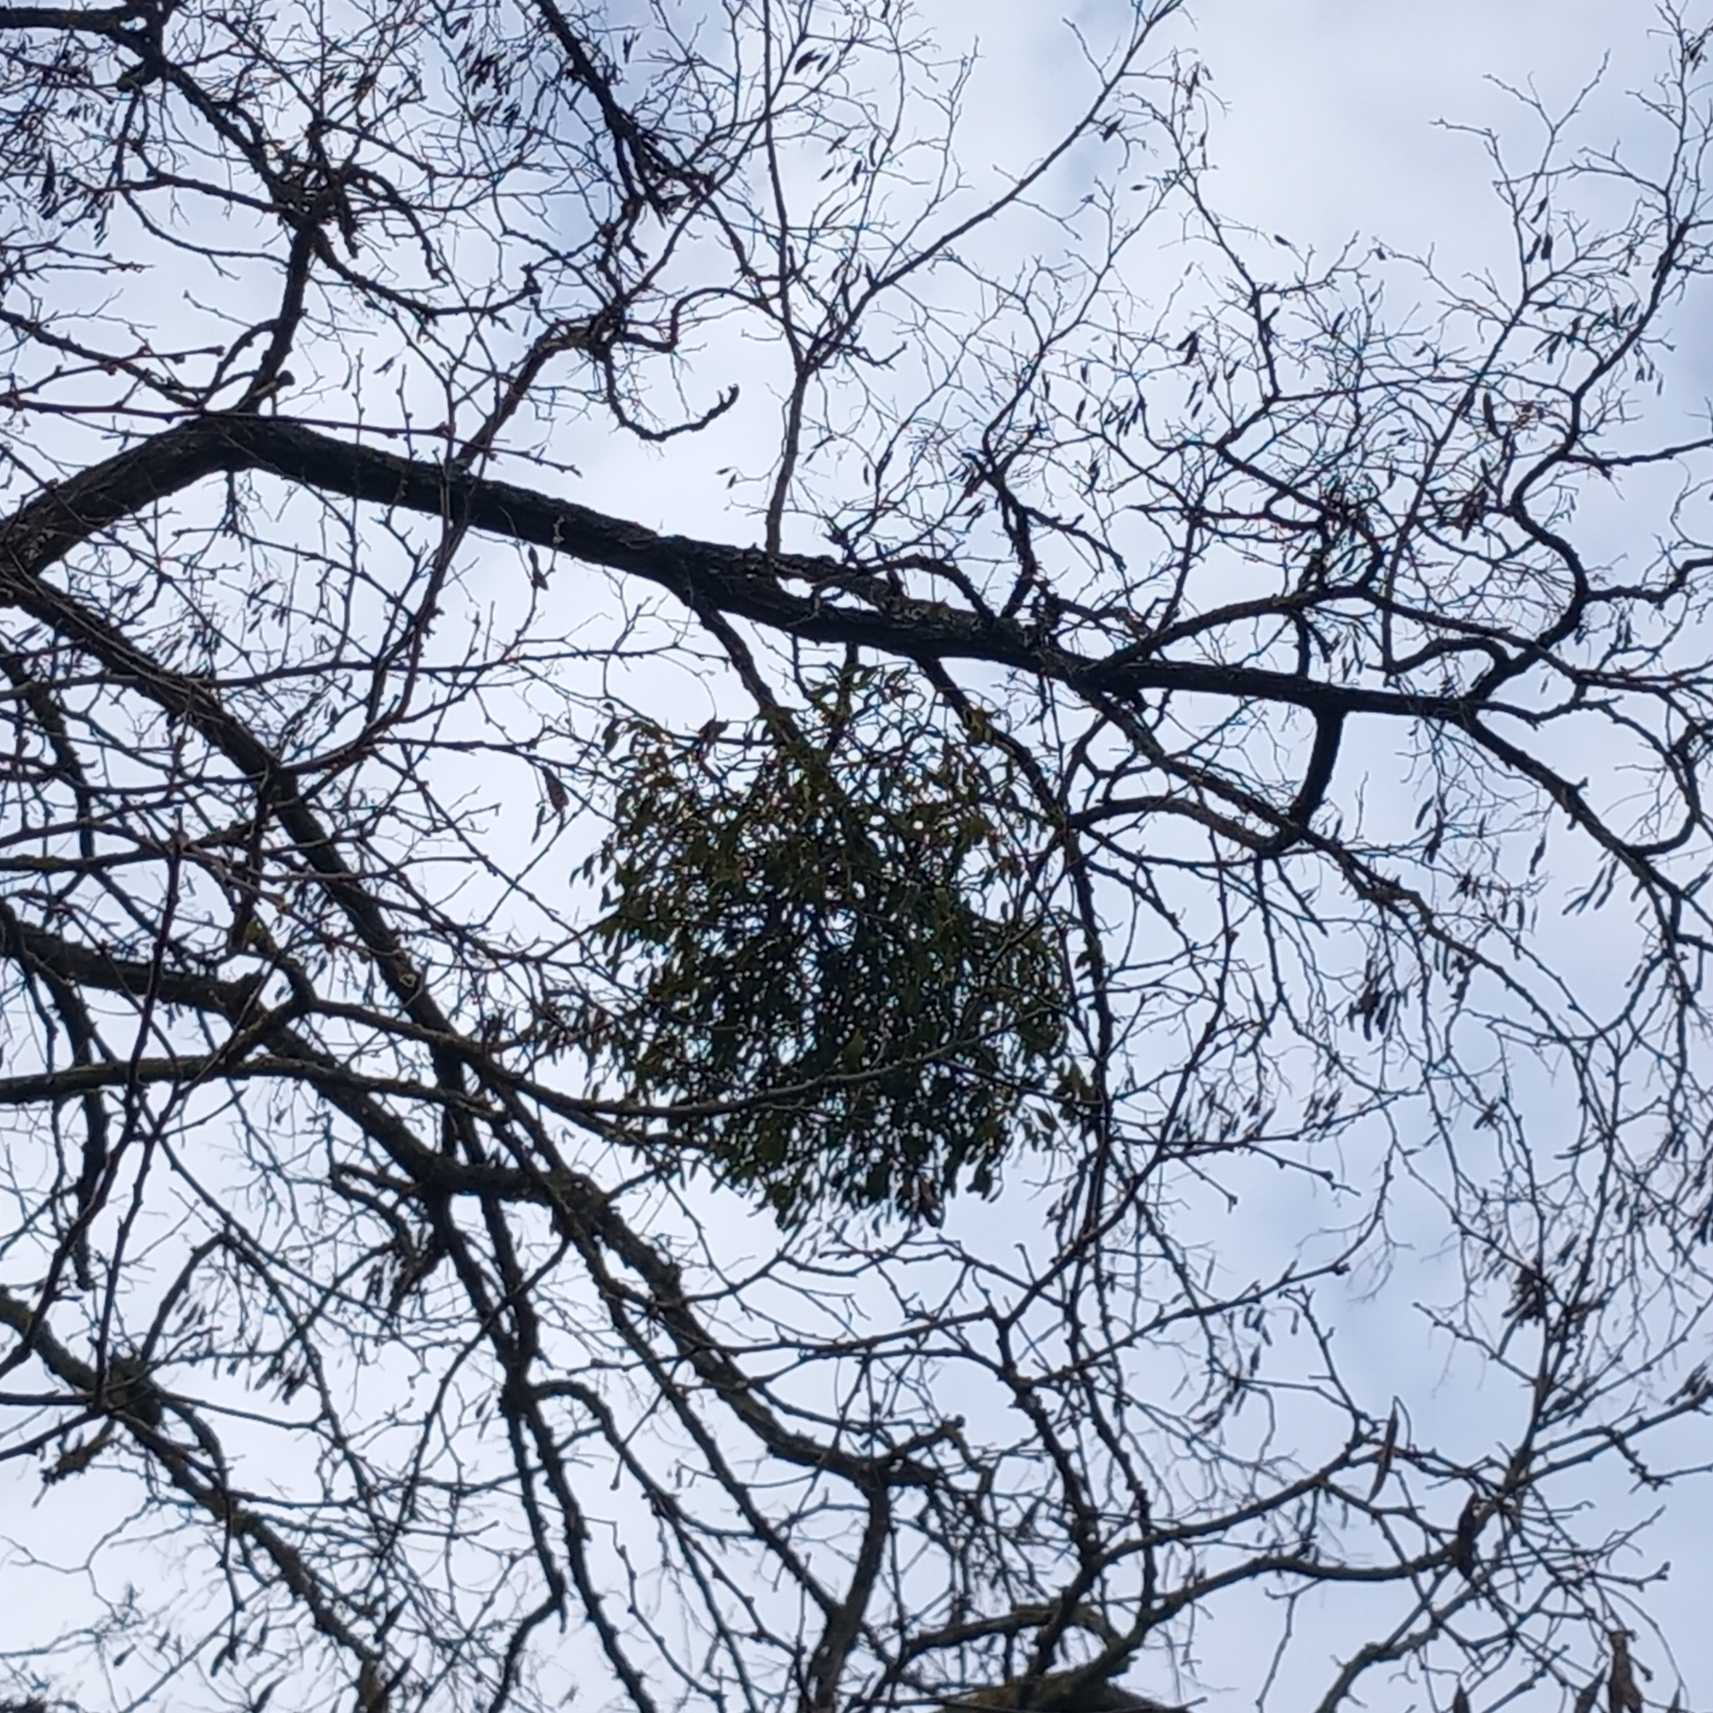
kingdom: Plantae
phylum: Tracheophyta
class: Magnoliopsida
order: Santalales
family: Viscaceae
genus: Viscum
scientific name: Viscum album
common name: Mistelten
